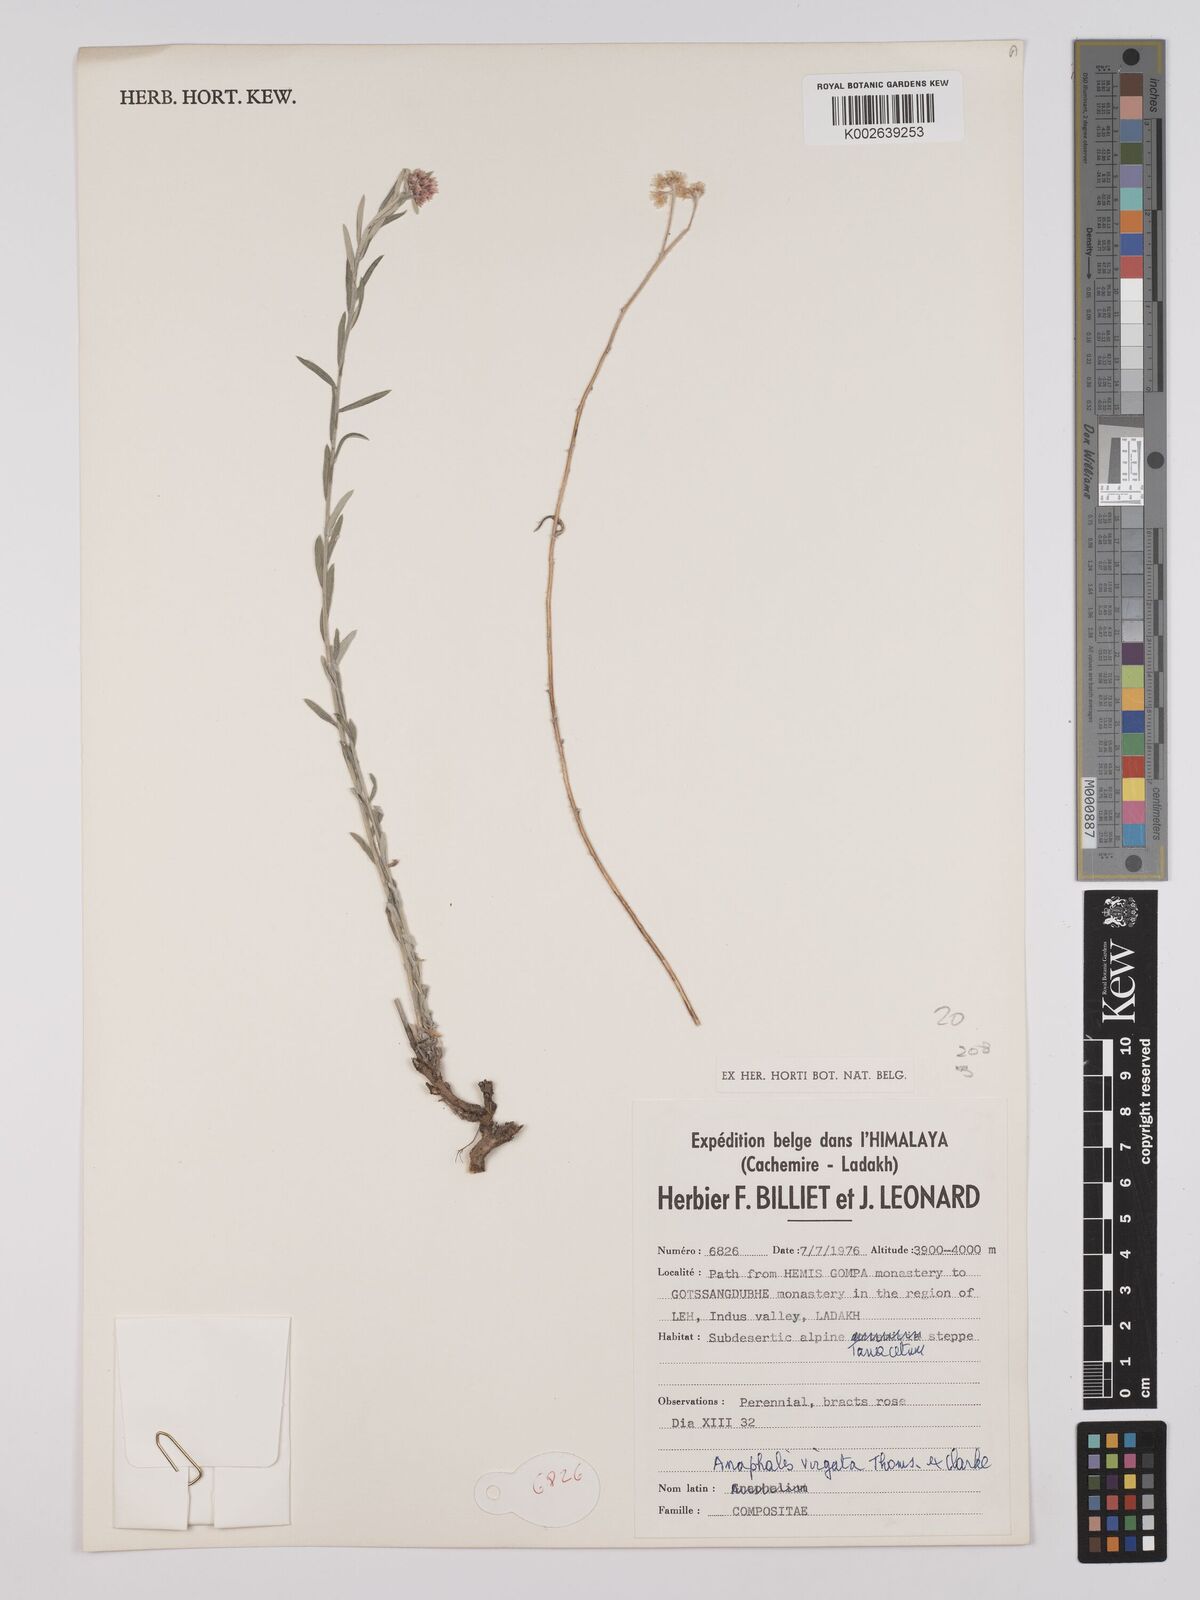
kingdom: Plantae
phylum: Tracheophyta
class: Magnoliopsida
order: Asterales
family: Asteraceae
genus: Anaphalis
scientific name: Anaphalis
